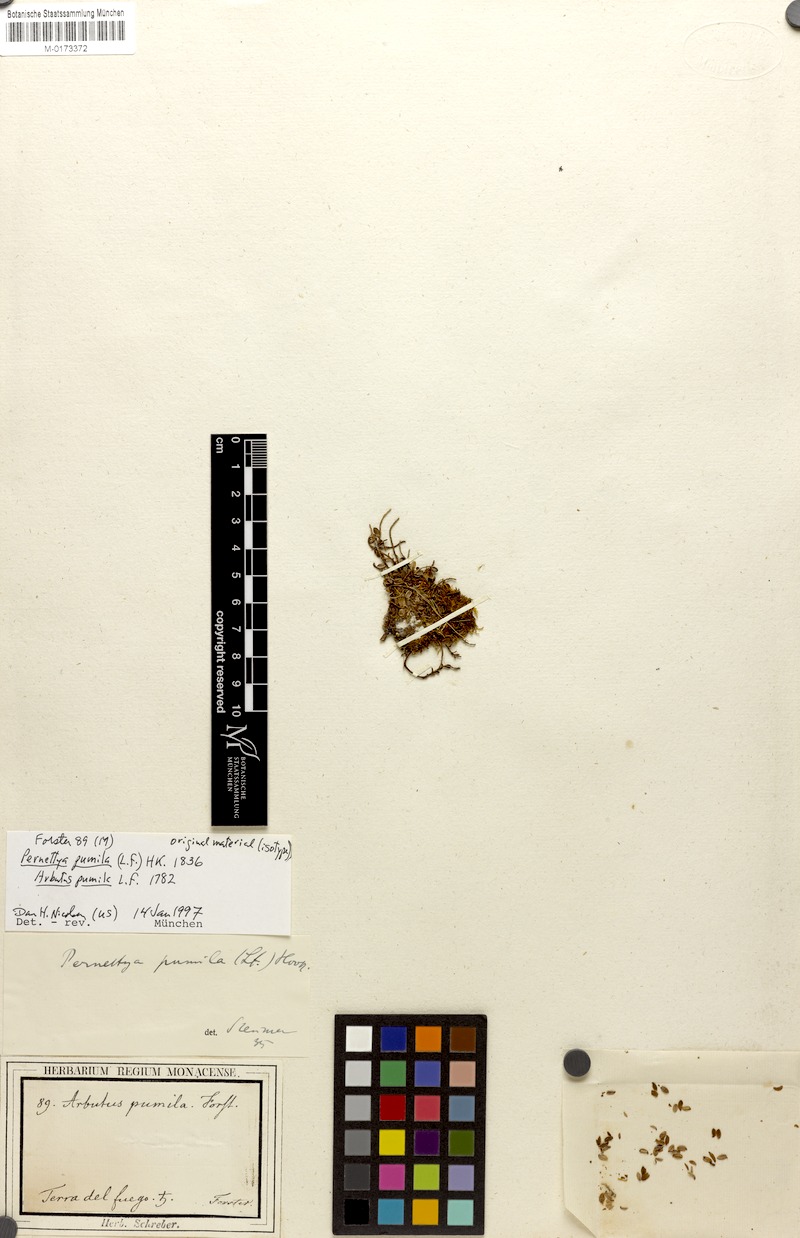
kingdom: Plantae
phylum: Tracheophyta
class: Magnoliopsida
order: Ericales
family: Ericaceae
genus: Gaultheria
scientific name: Gaultheria pumila
